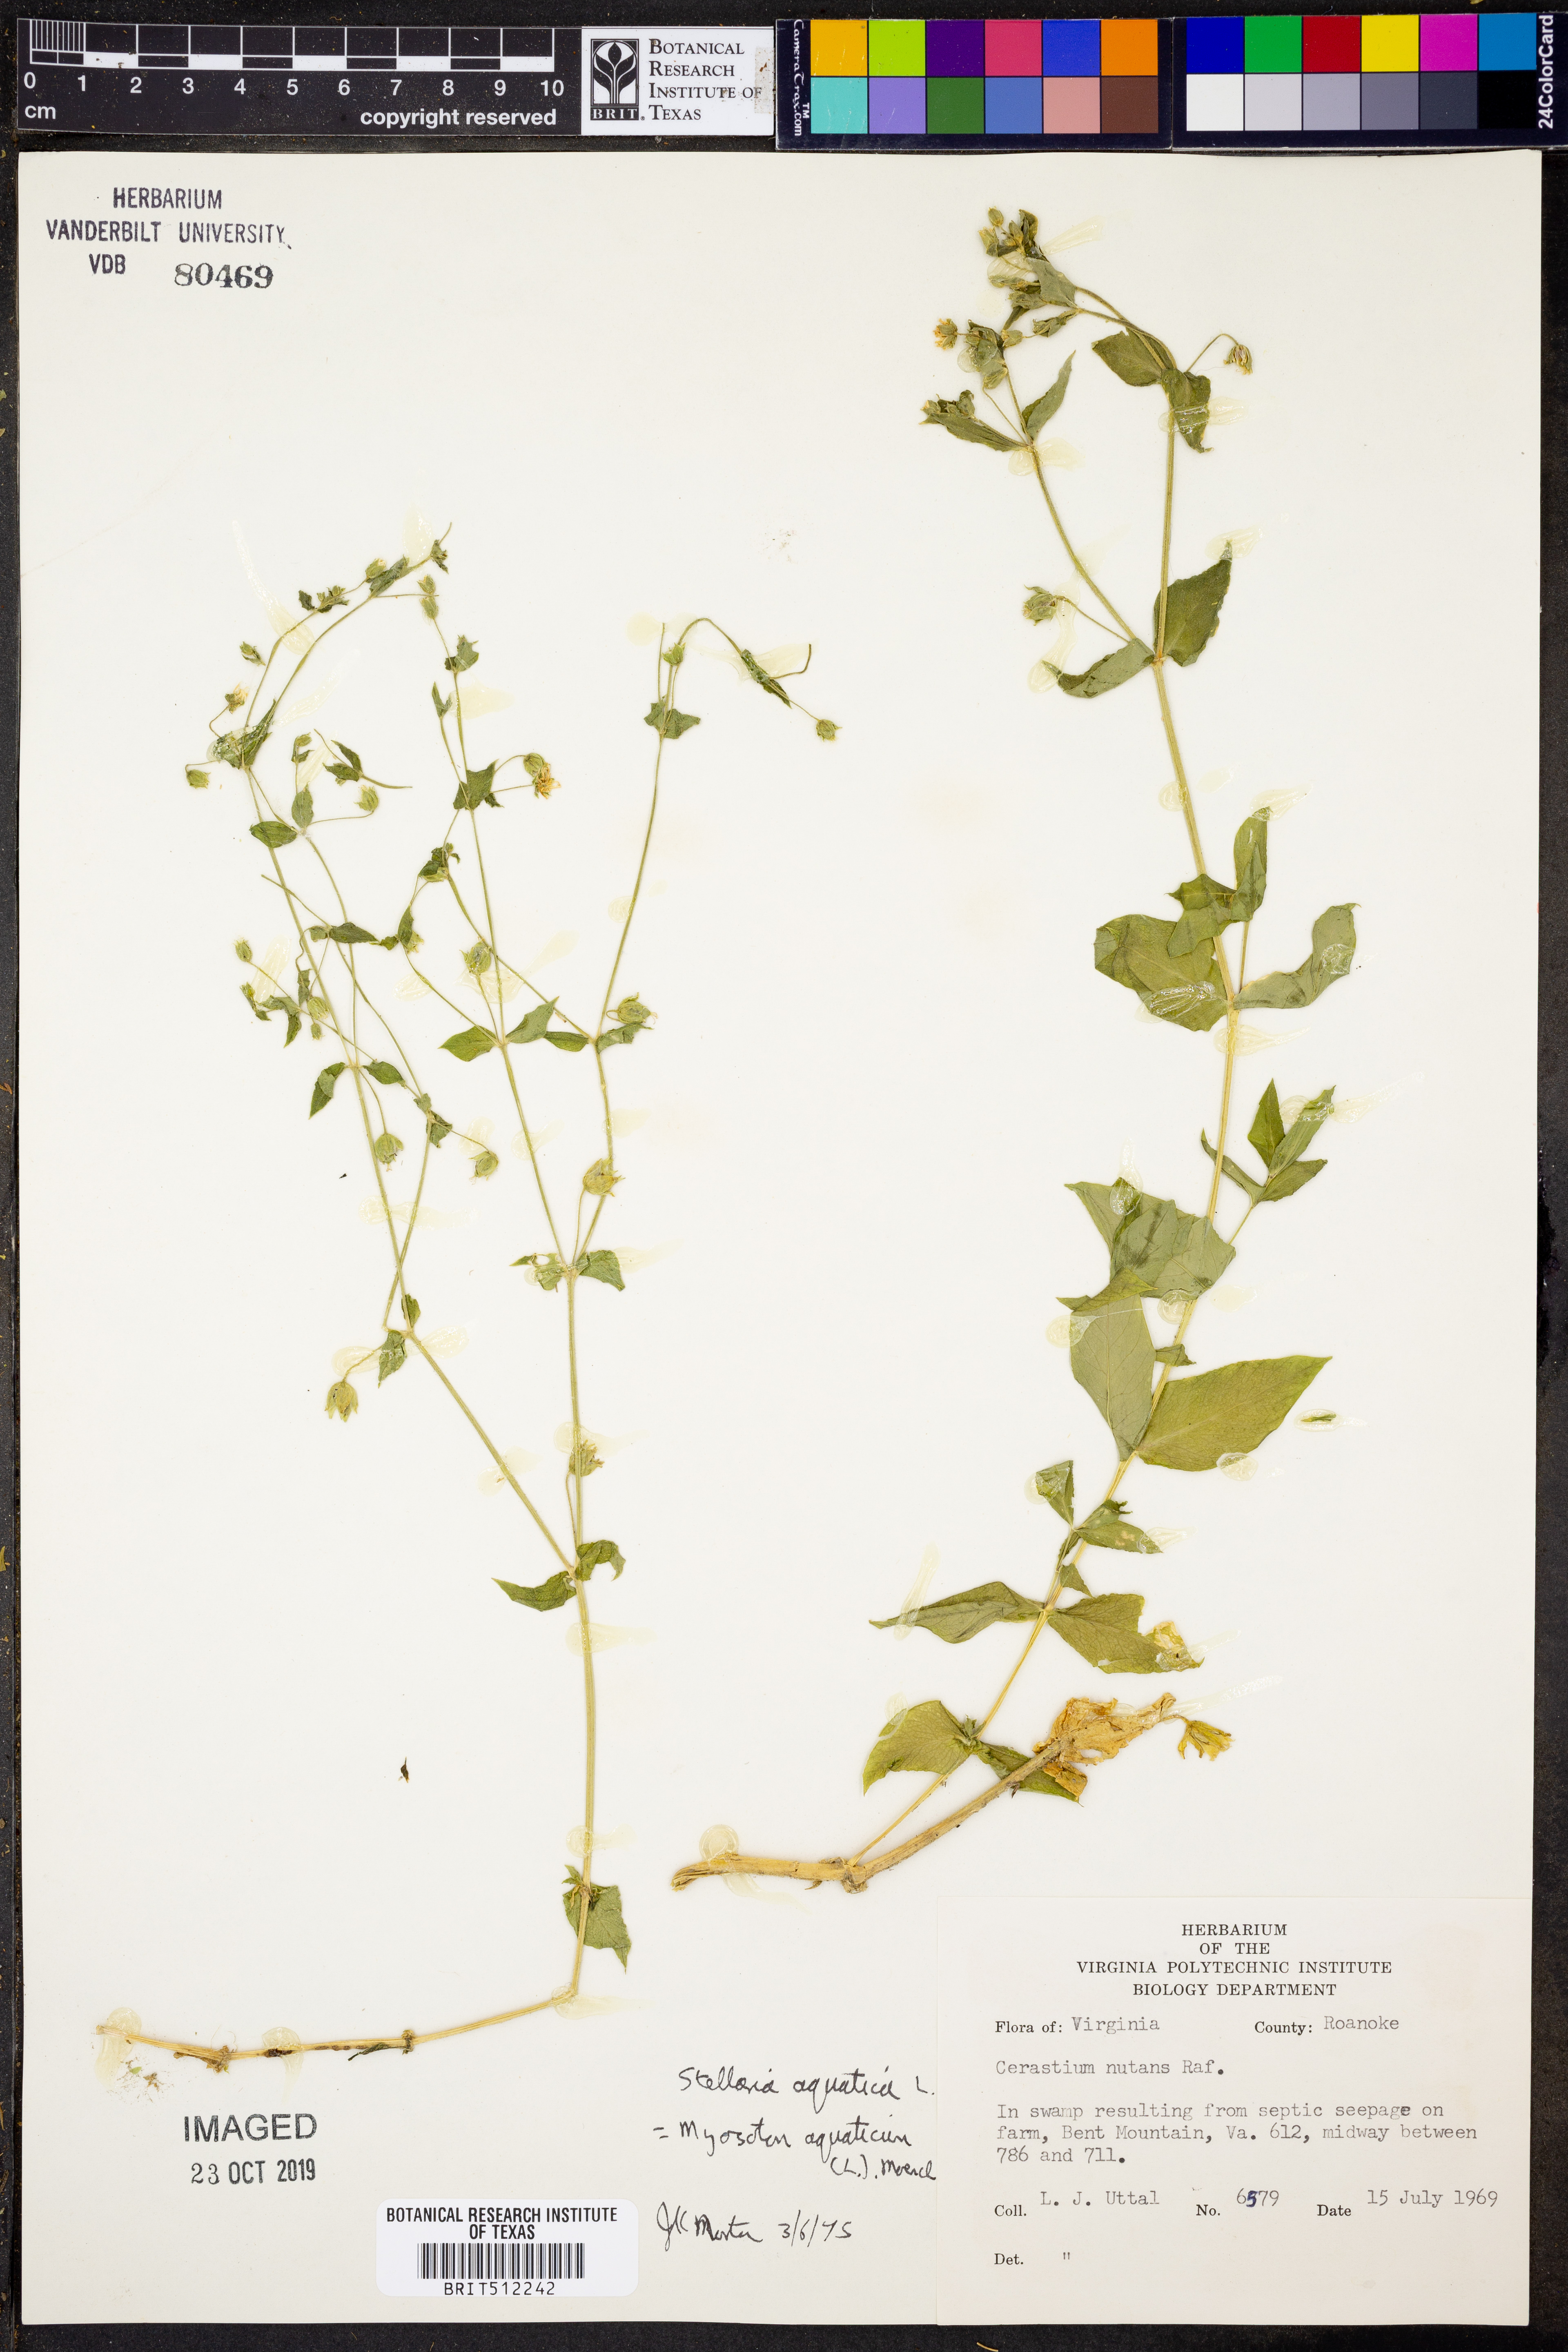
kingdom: Plantae
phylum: Tracheophyta
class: Magnoliopsida
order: Caryophyllales
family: Caryophyllaceae
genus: Stellaria
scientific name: Stellaria aquatica
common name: Water chickweed
